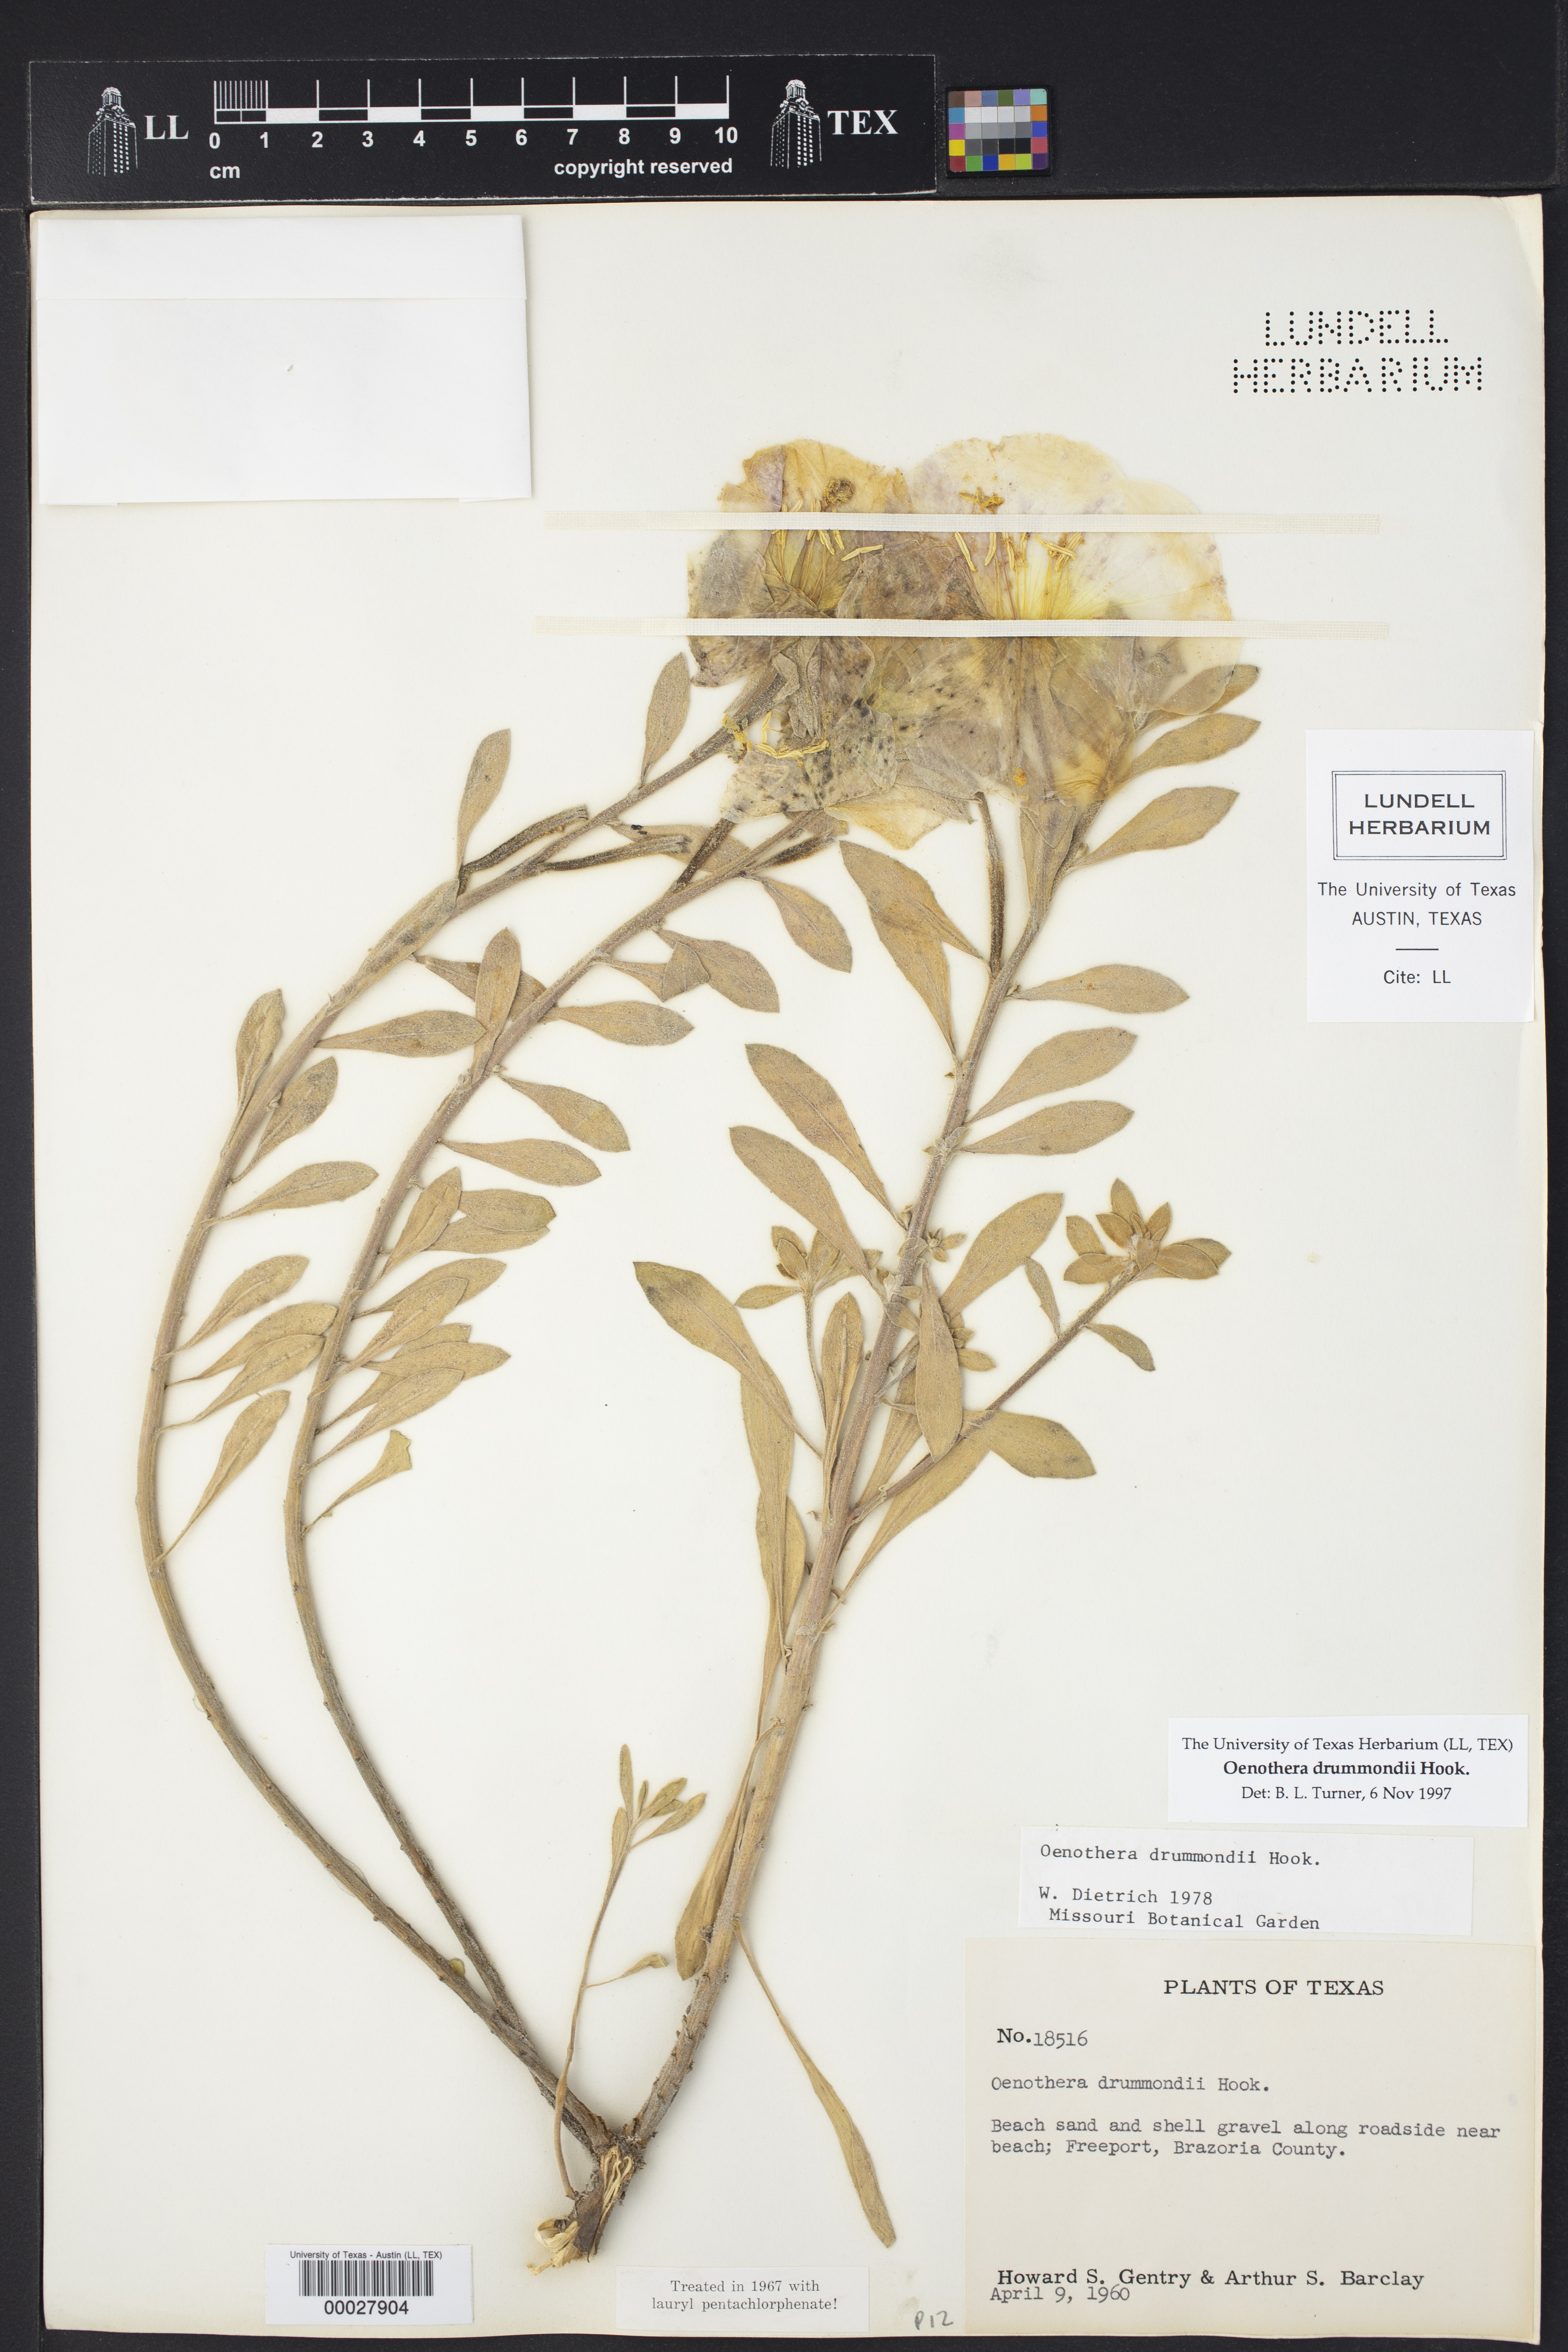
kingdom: Plantae
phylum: Tracheophyta
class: Magnoliopsida
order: Myrtales
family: Onagraceae
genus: Oenothera
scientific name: Oenothera drummondii
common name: Beach evening-primrose
